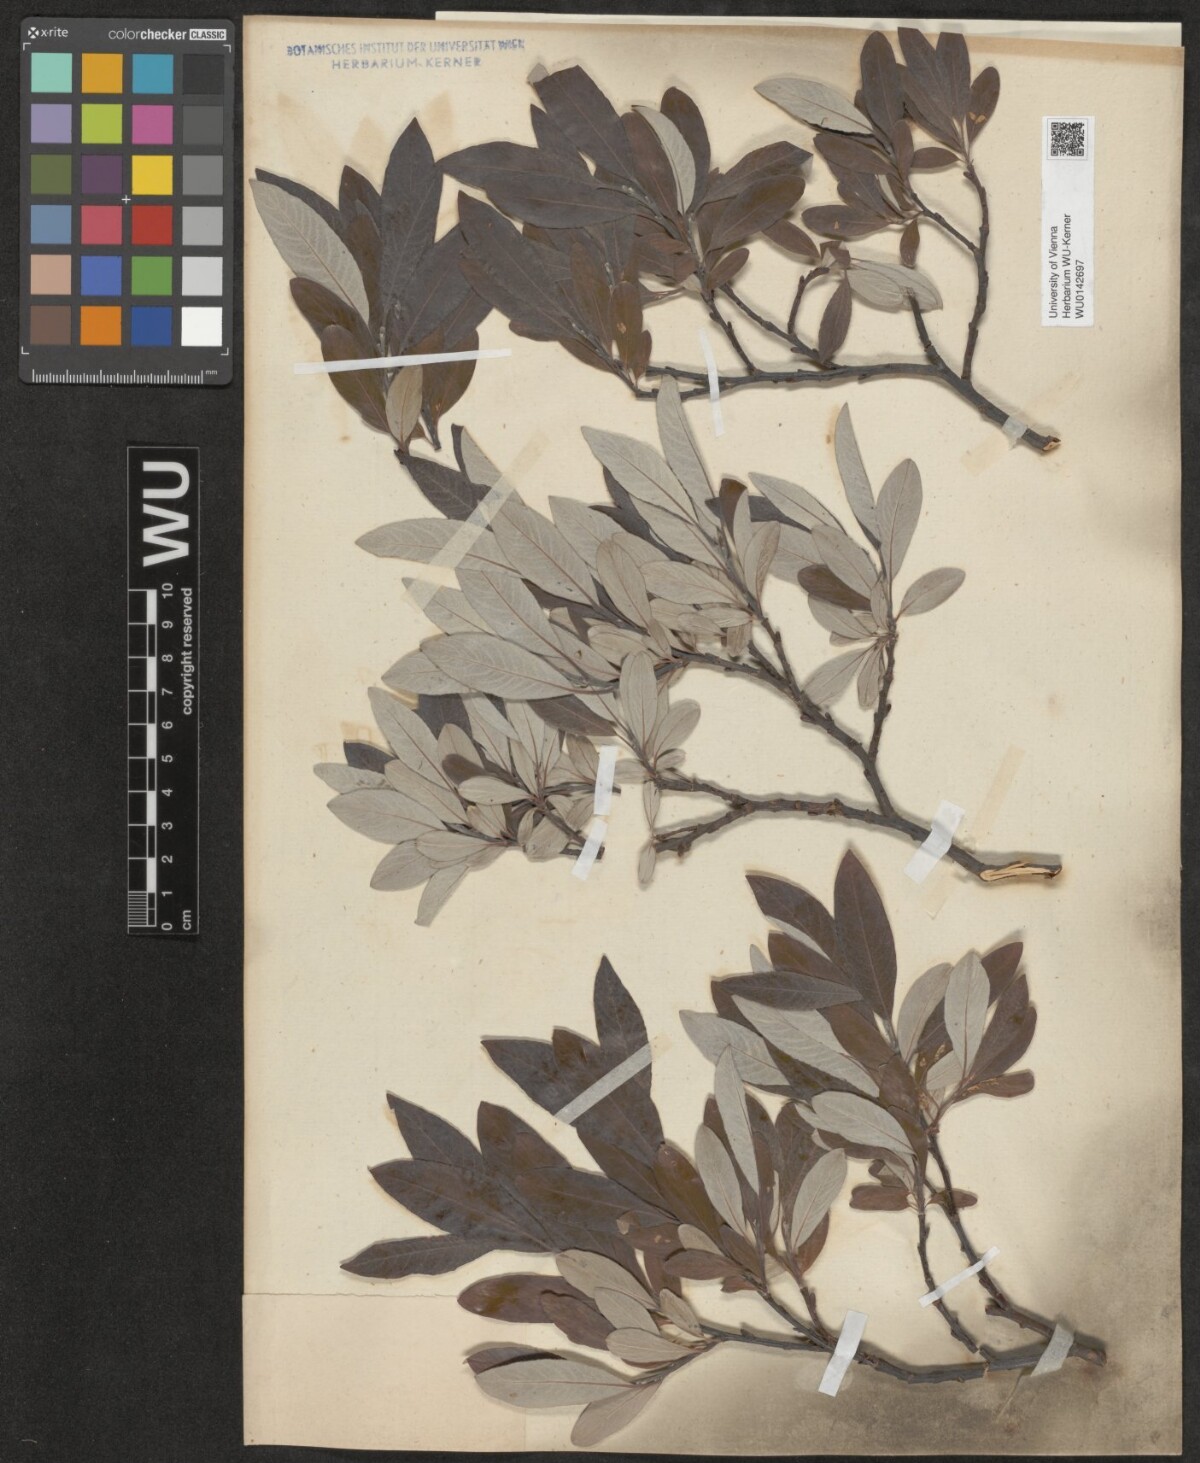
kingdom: Plantae
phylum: Tracheophyta
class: Magnoliopsida
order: Malpighiales
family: Salicaceae
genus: Salix
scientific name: Salix helvetica
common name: Swiss willow
